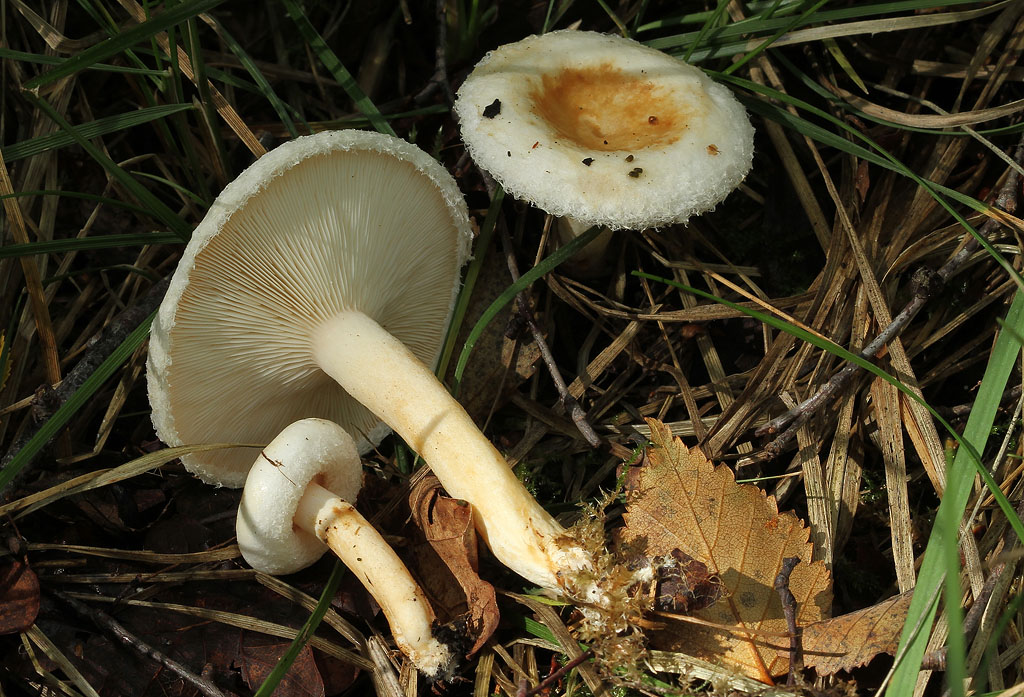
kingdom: Fungi
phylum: Basidiomycota
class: Agaricomycetes
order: Russulales
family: Russulaceae
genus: Lactarius
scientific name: Lactarius scoticus
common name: tørve-mælkehat
